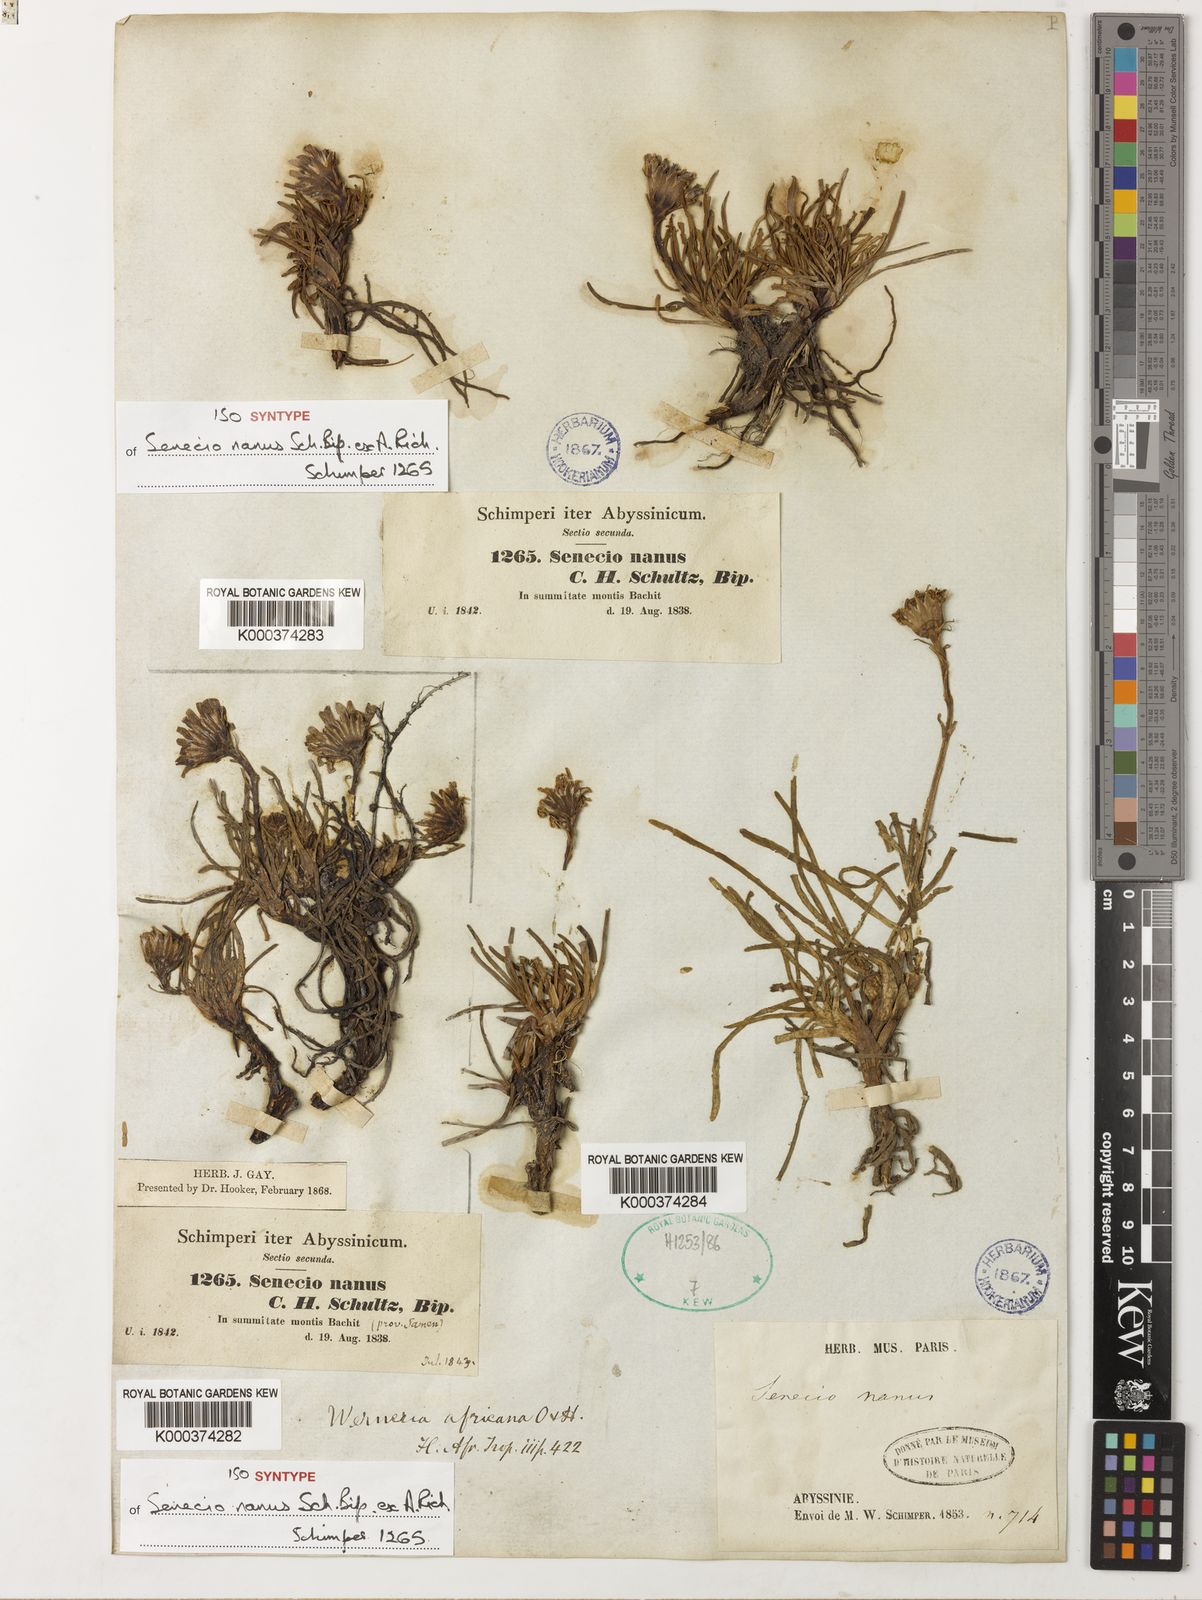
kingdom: Plantae
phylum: Tracheophyta
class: Magnoliopsida
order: Asterales
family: Asteraceae
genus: Senecio
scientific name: Senecio nanus
